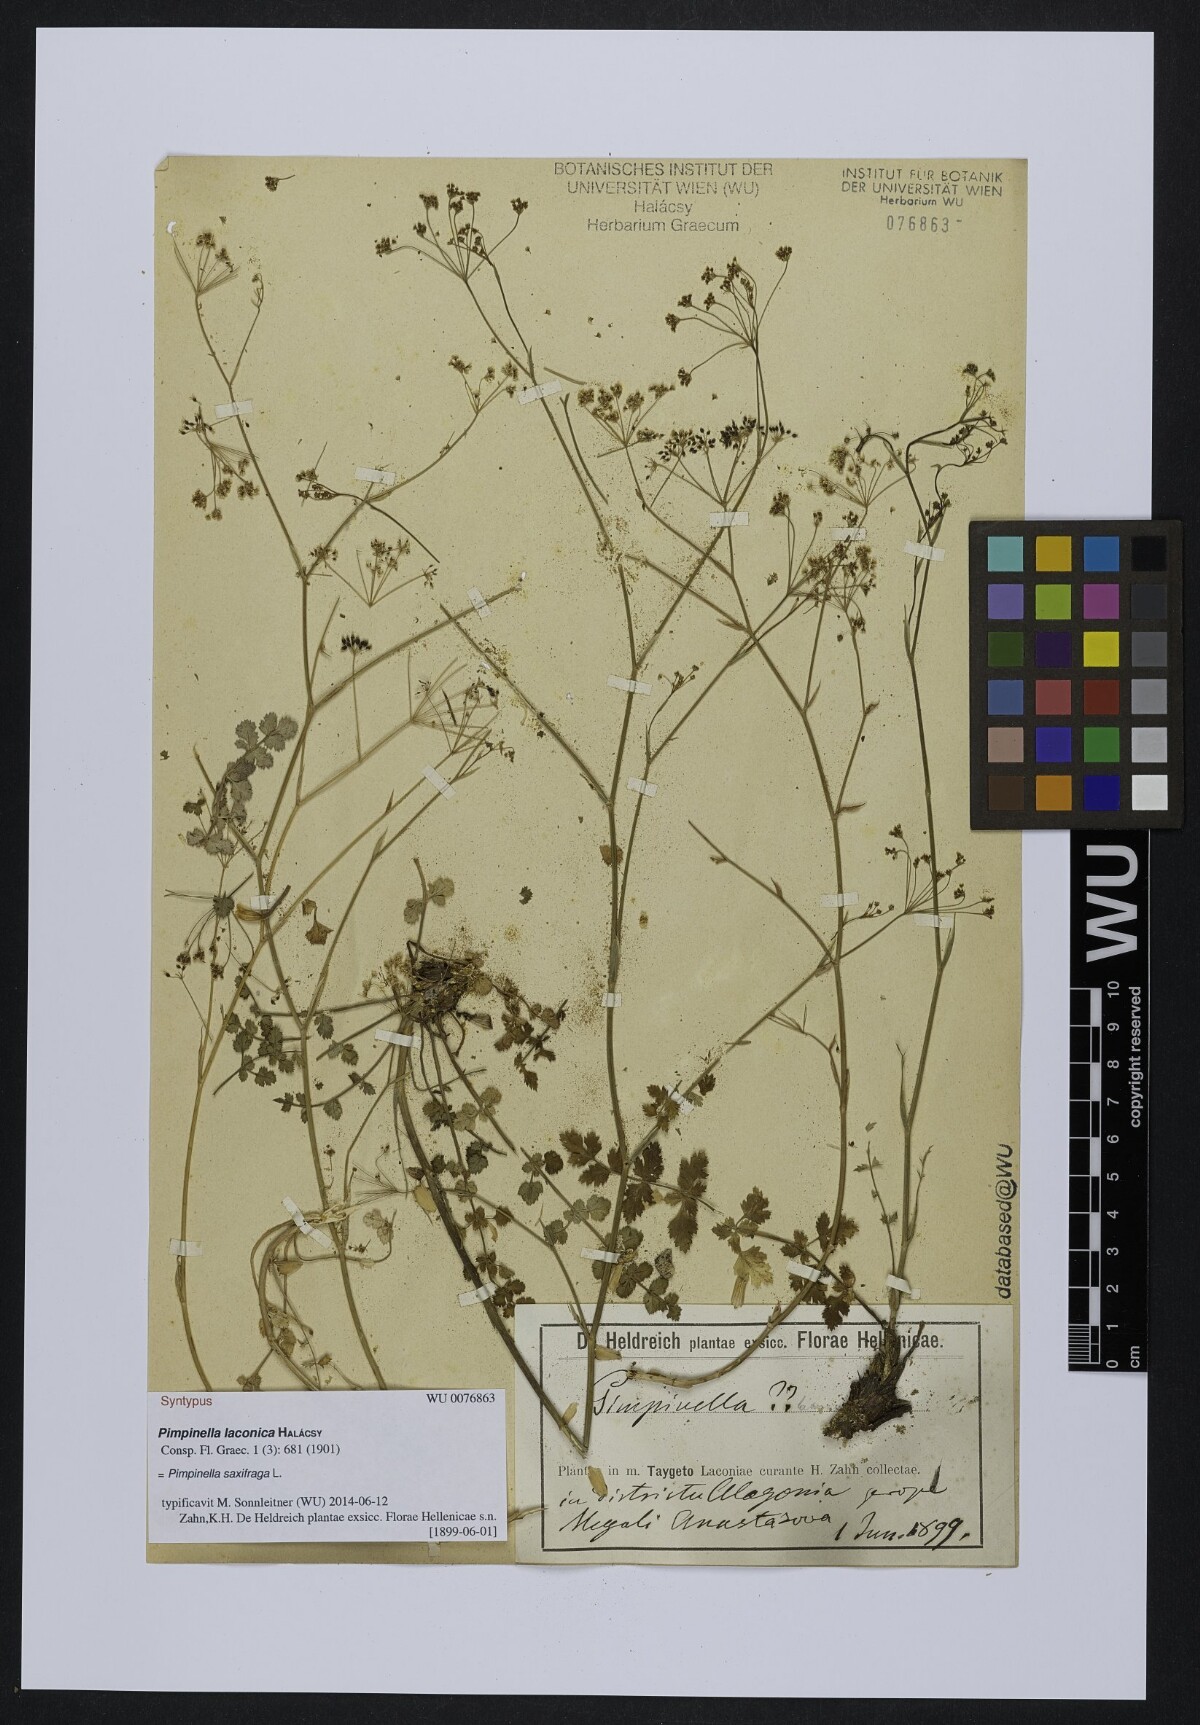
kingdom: Plantae
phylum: Tracheophyta
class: Magnoliopsida
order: Apiales
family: Apiaceae
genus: Pimpinella
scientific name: Pimpinella saxifraga
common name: Burnet-saxifrage
